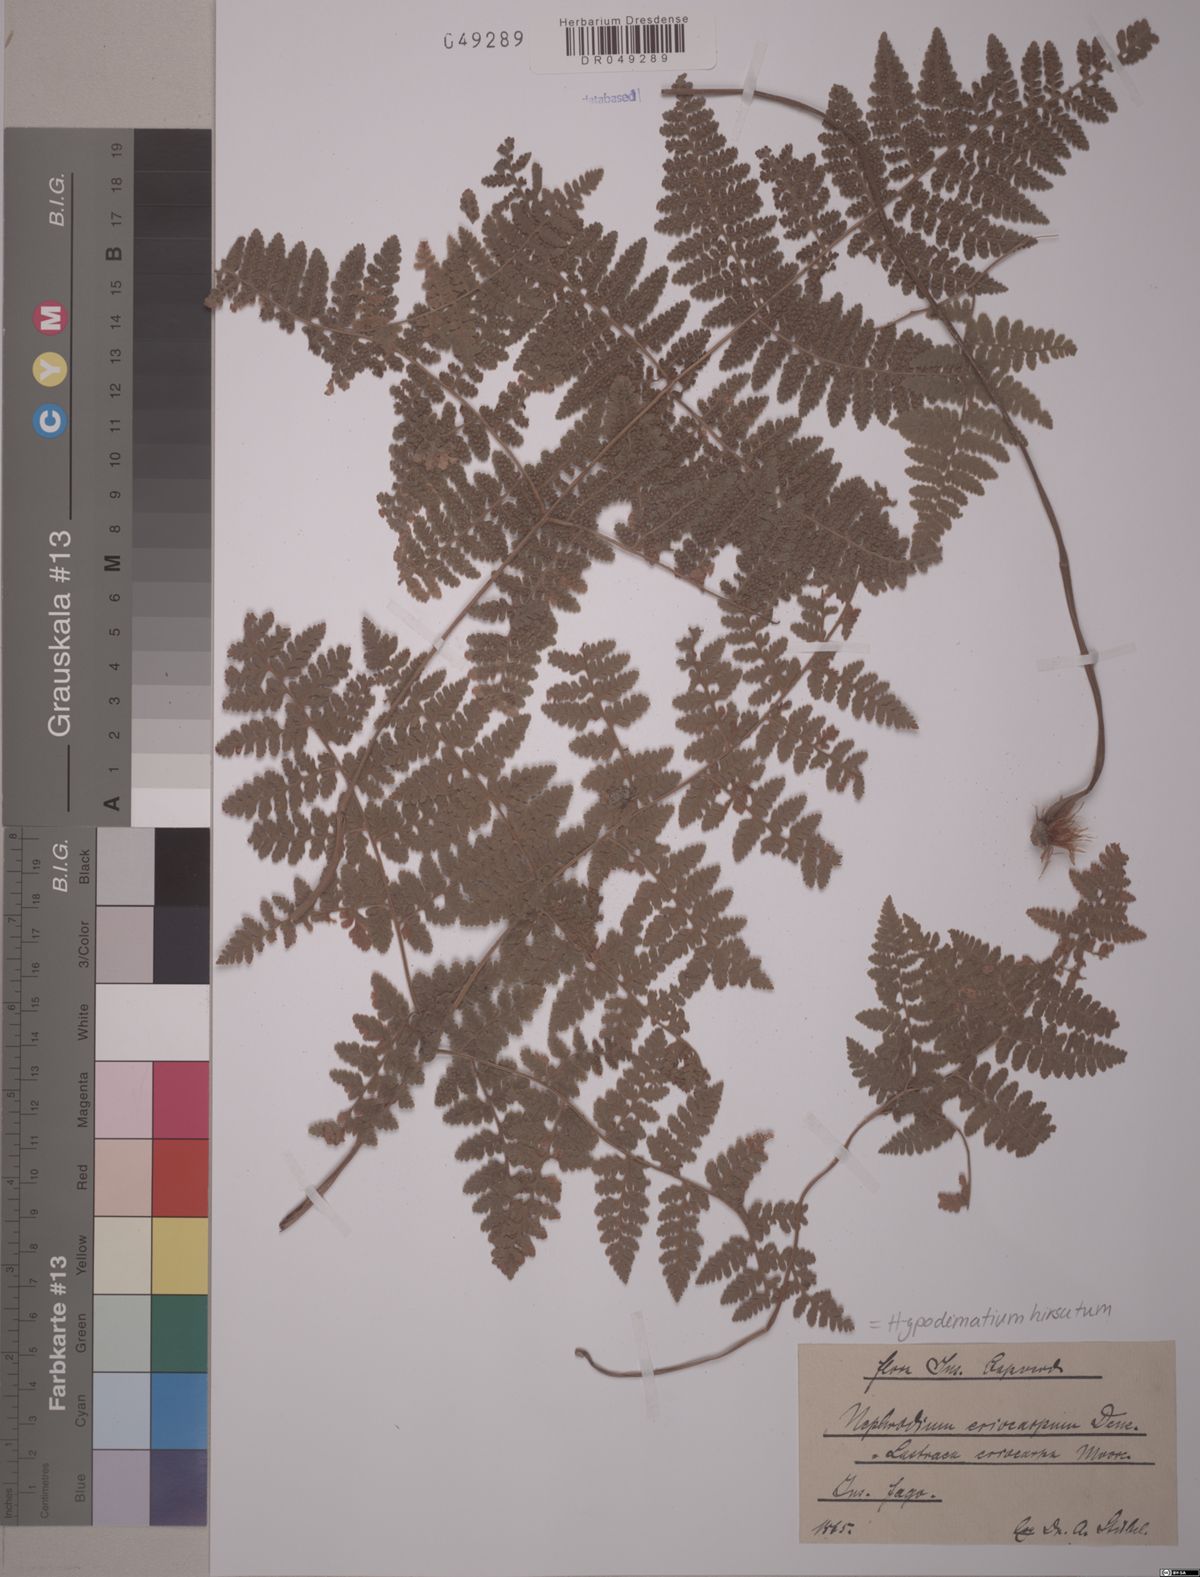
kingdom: Plantae
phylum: Tracheophyta
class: Polypodiopsida
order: Polypodiales
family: Hypodematiaceae
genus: Hypodematium
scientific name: Hypodematium hirsutum
